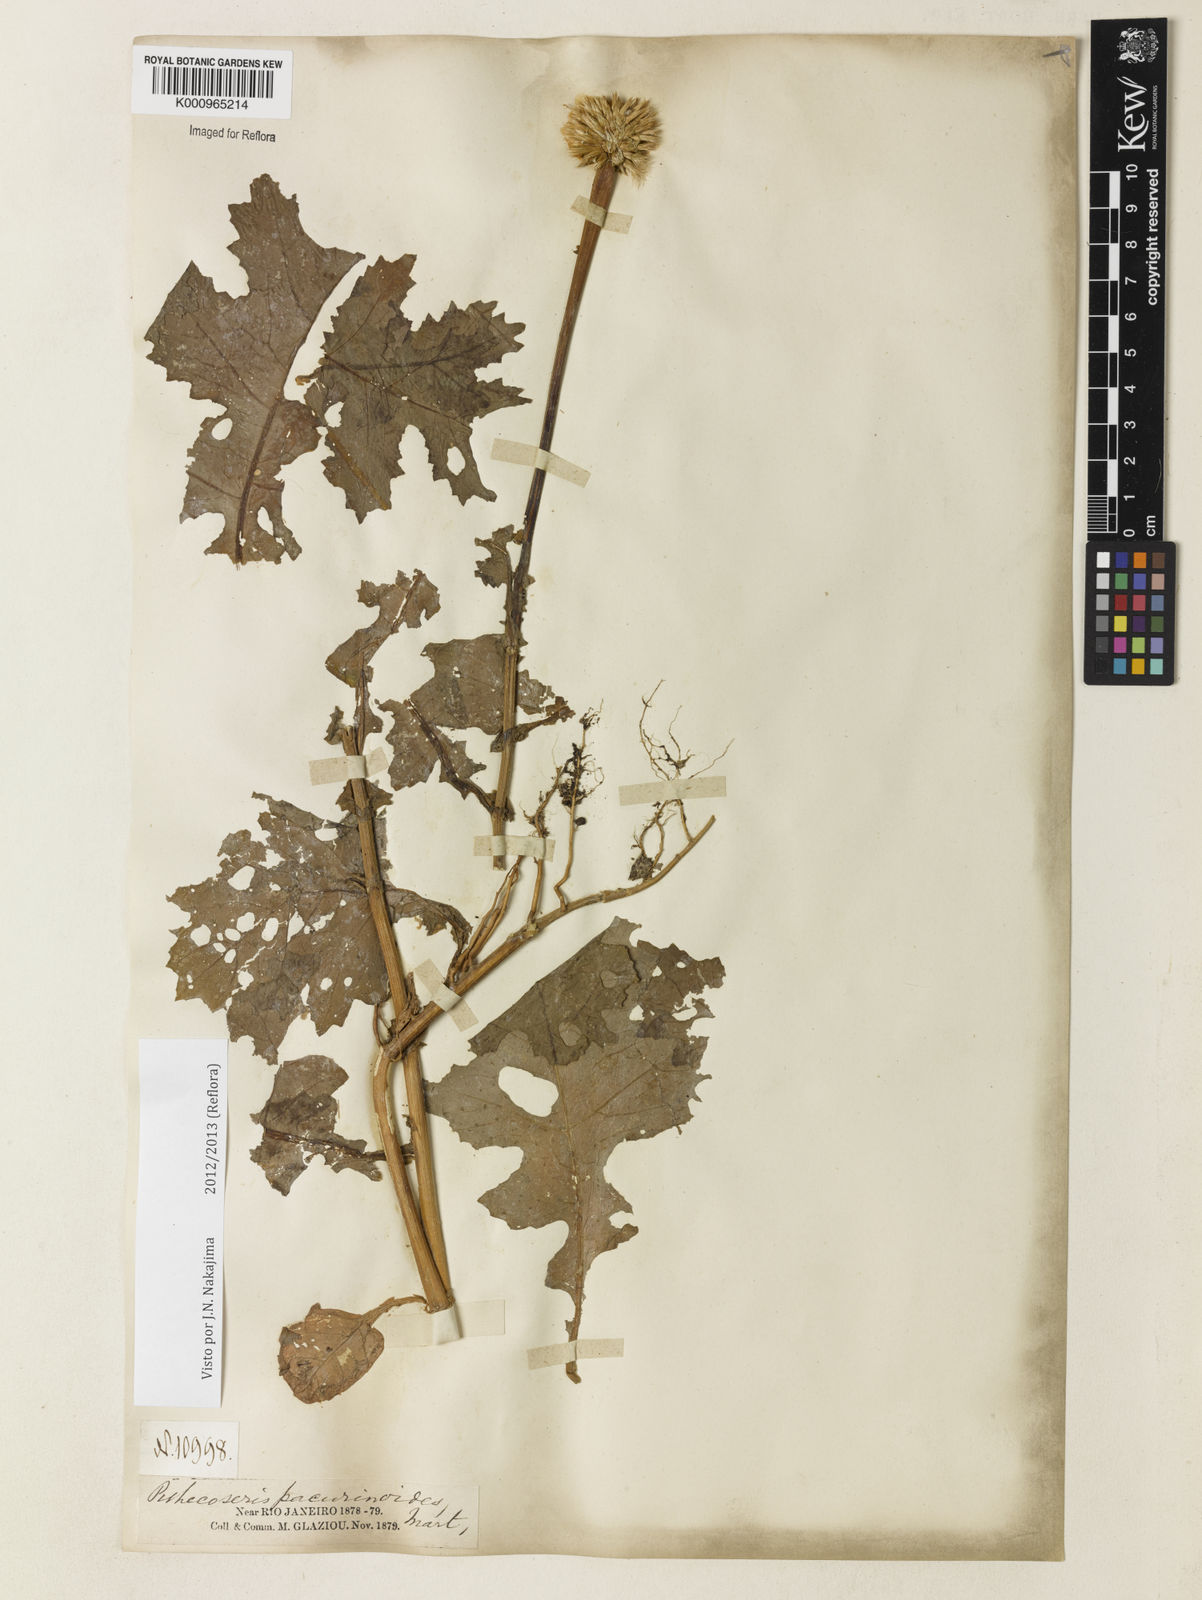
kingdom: Plantae
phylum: Tracheophyta
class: Magnoliopsida
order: Asterales
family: Asteraceae
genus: Chresta
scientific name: Chresta pacourinoides
